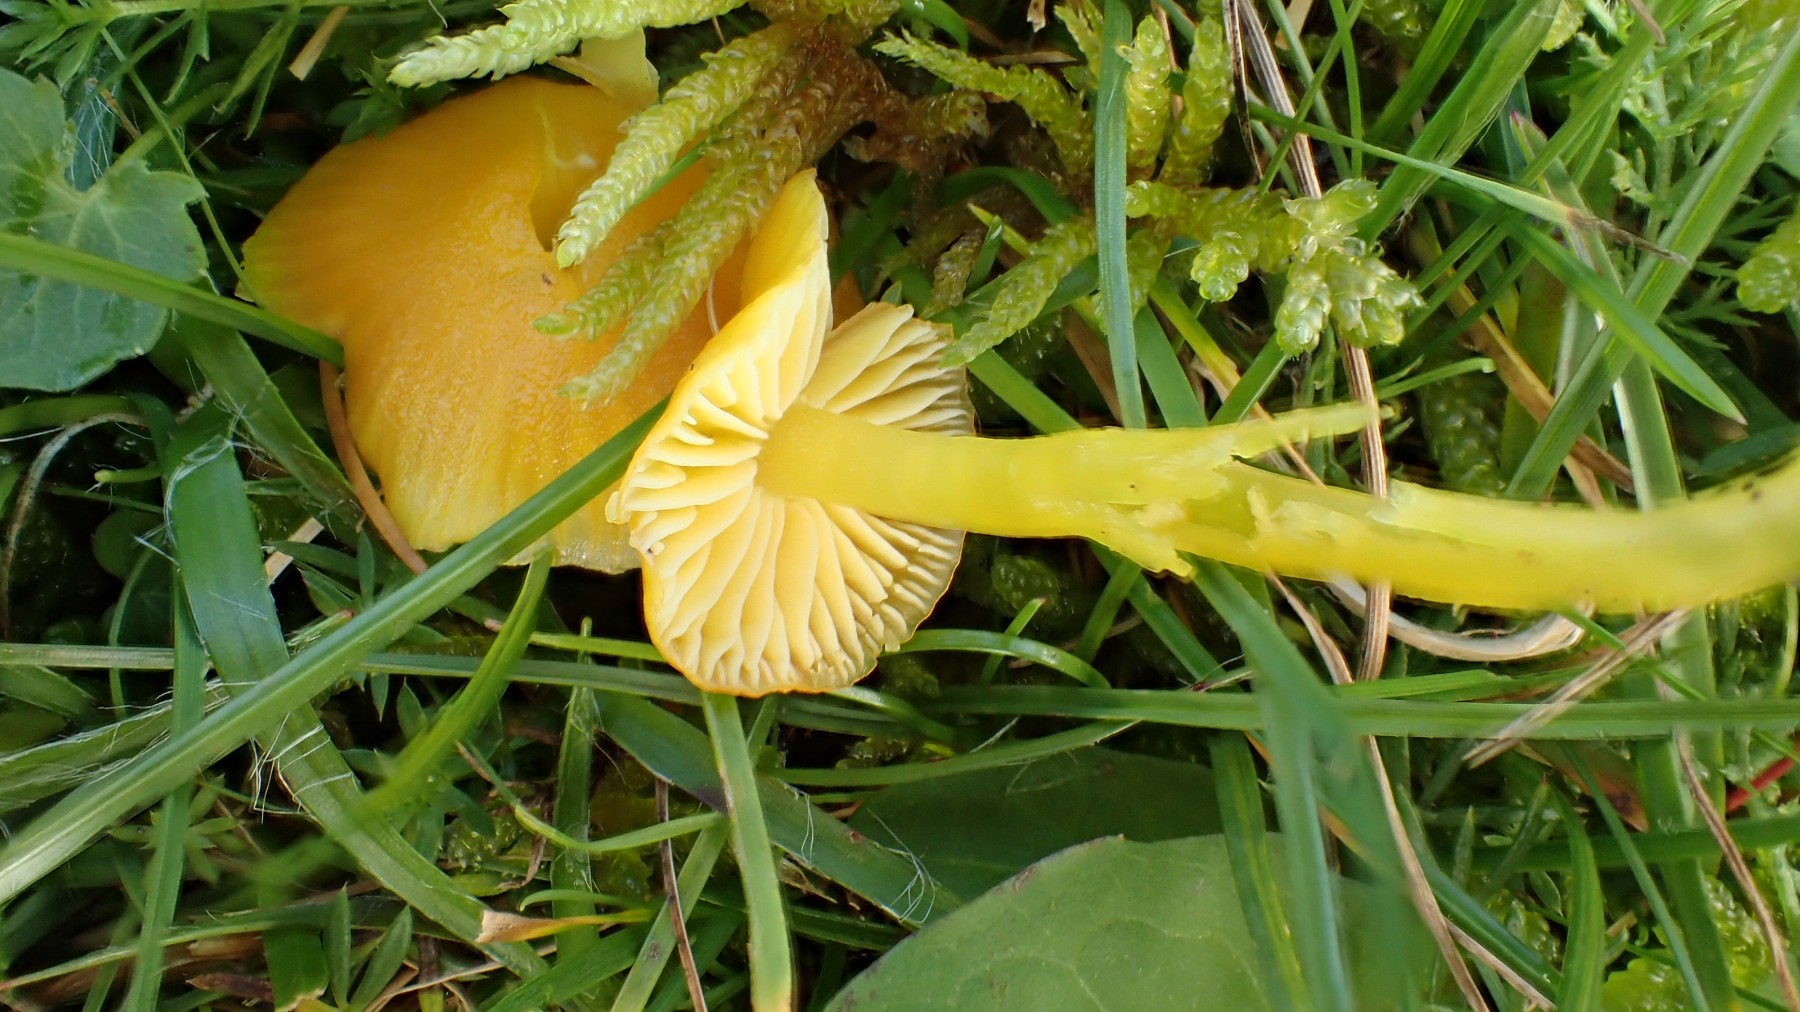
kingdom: Fungi
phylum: Basidiomycota
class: Agaricomycetes
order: Agaricales
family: Hygrophoraceae
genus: Hygrocybe
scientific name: Hygrocybe ceracea
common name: voksgul vokshat
